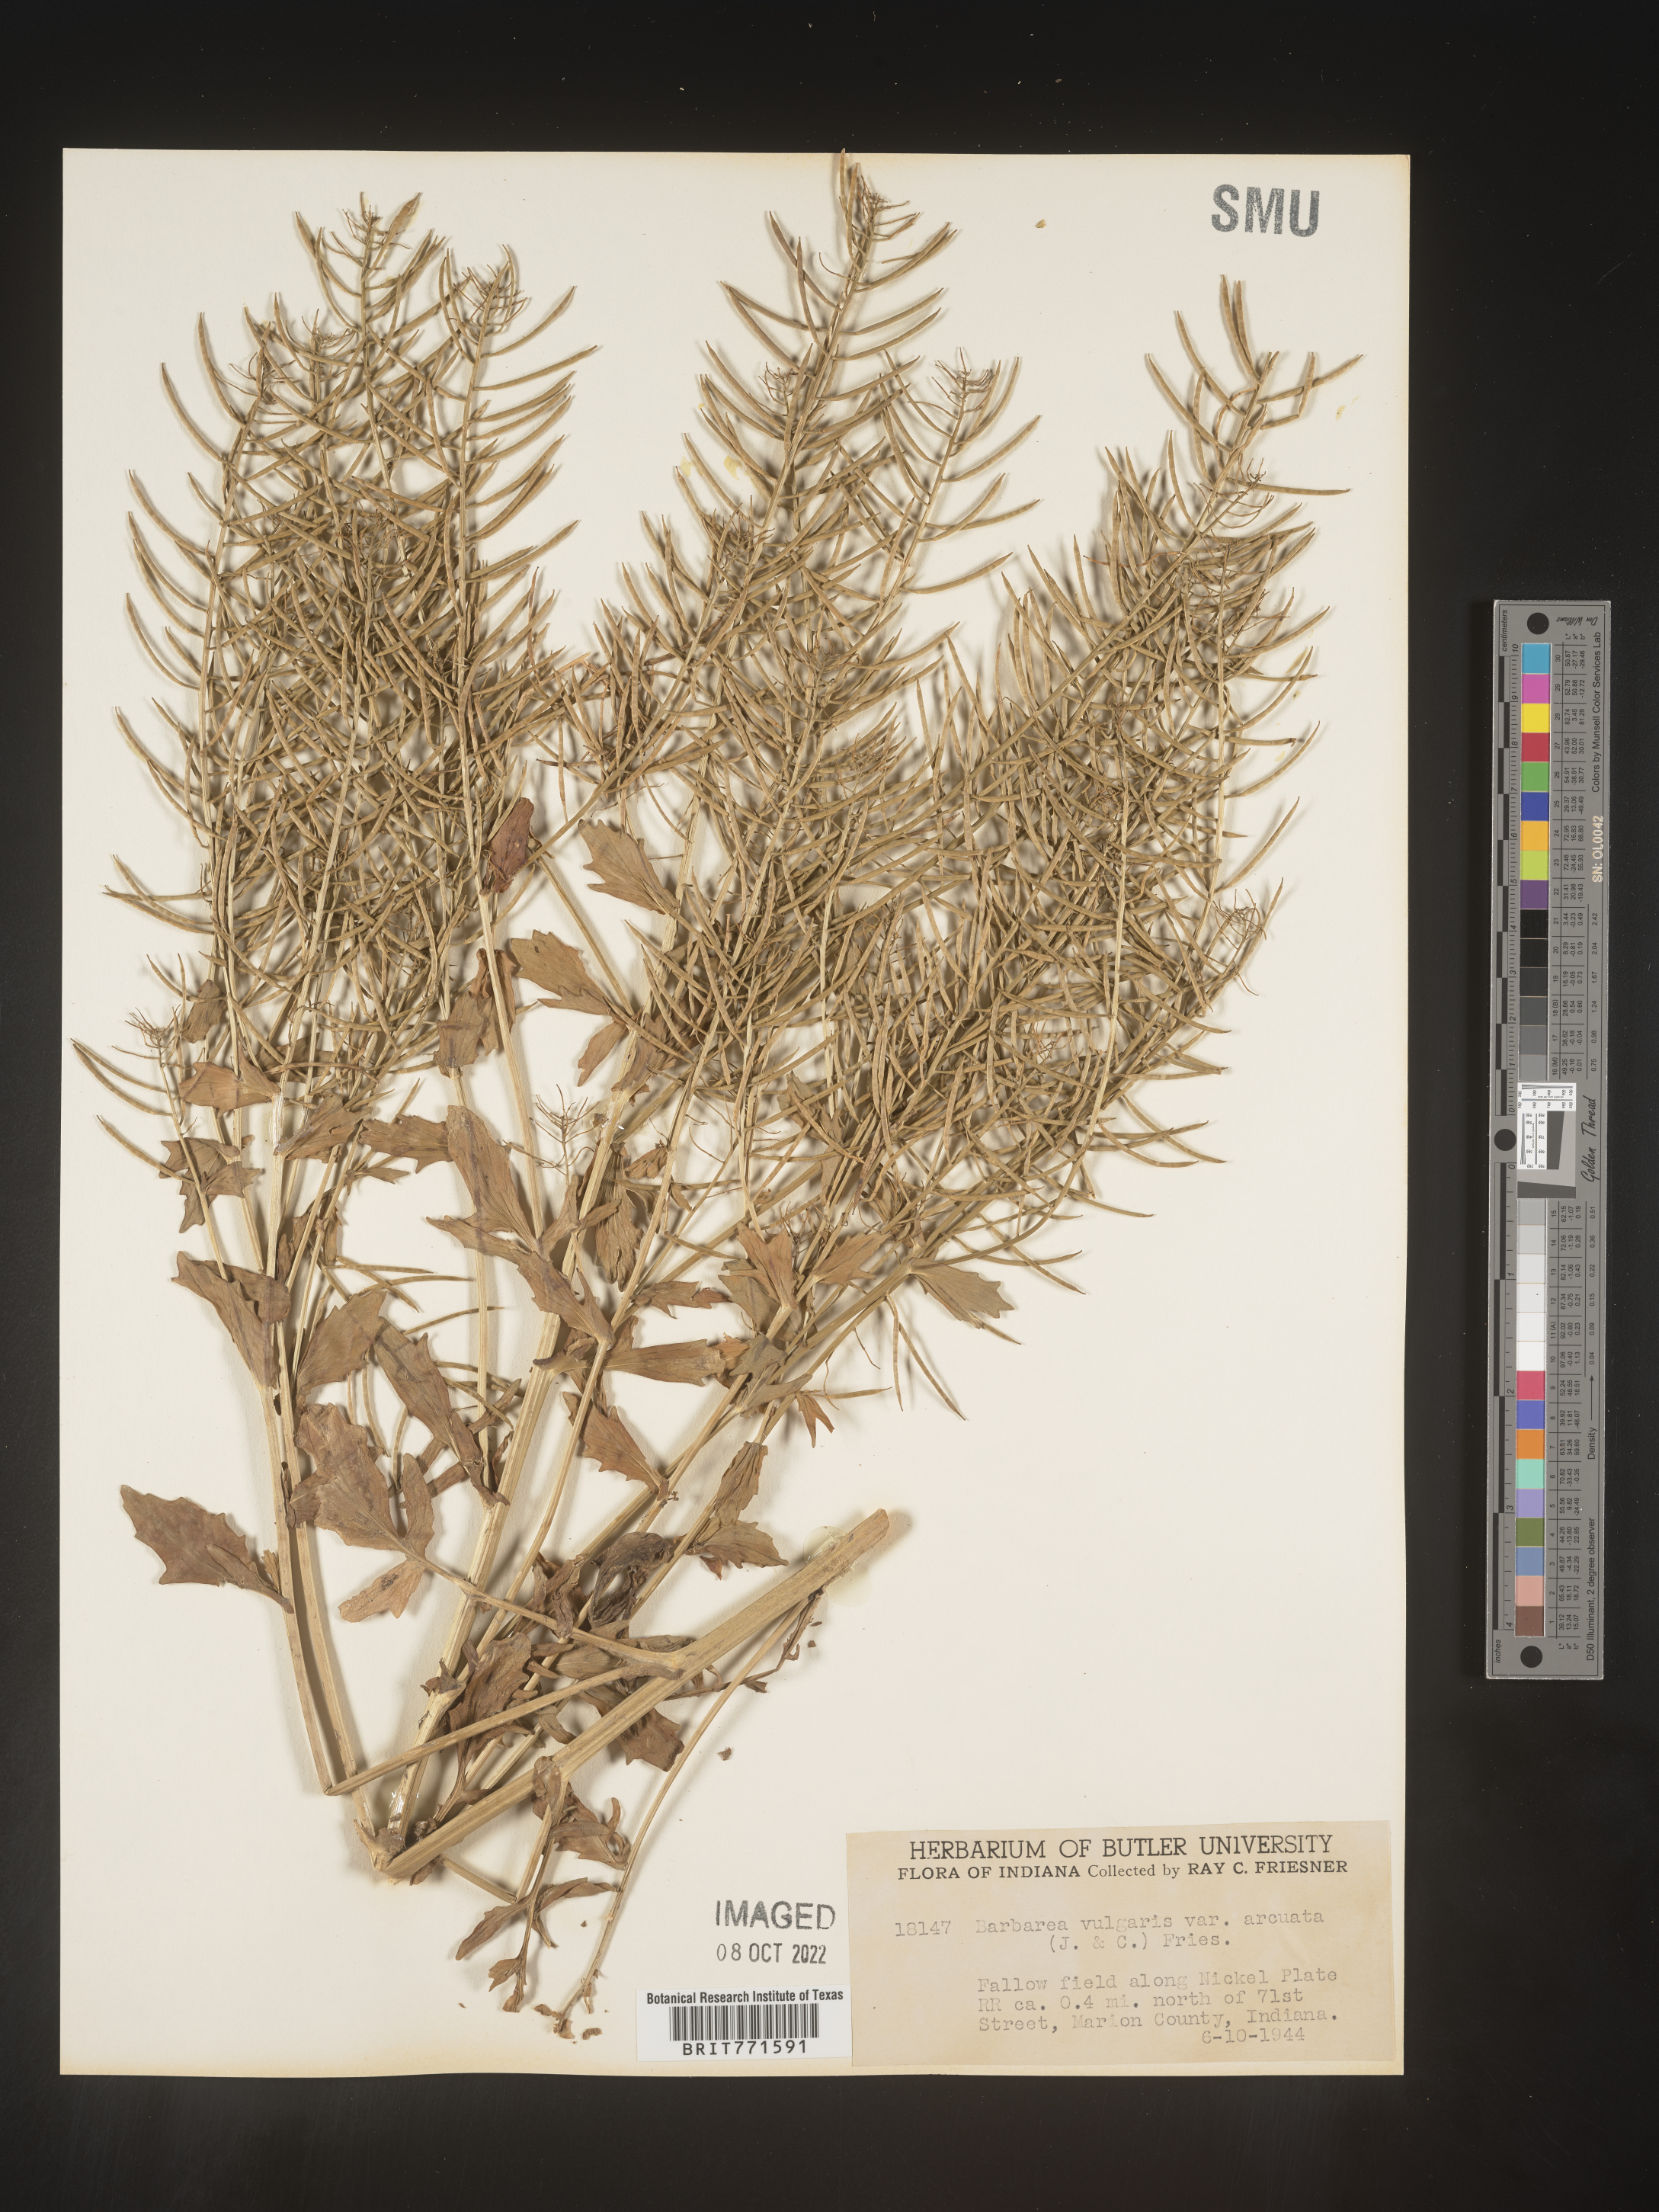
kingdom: Plantae
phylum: Tracheophyta
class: Magnoliopsida
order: Brassicales
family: Brassicaceae
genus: Barbarea
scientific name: Barbarea vulgaris
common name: Cressy-greens
